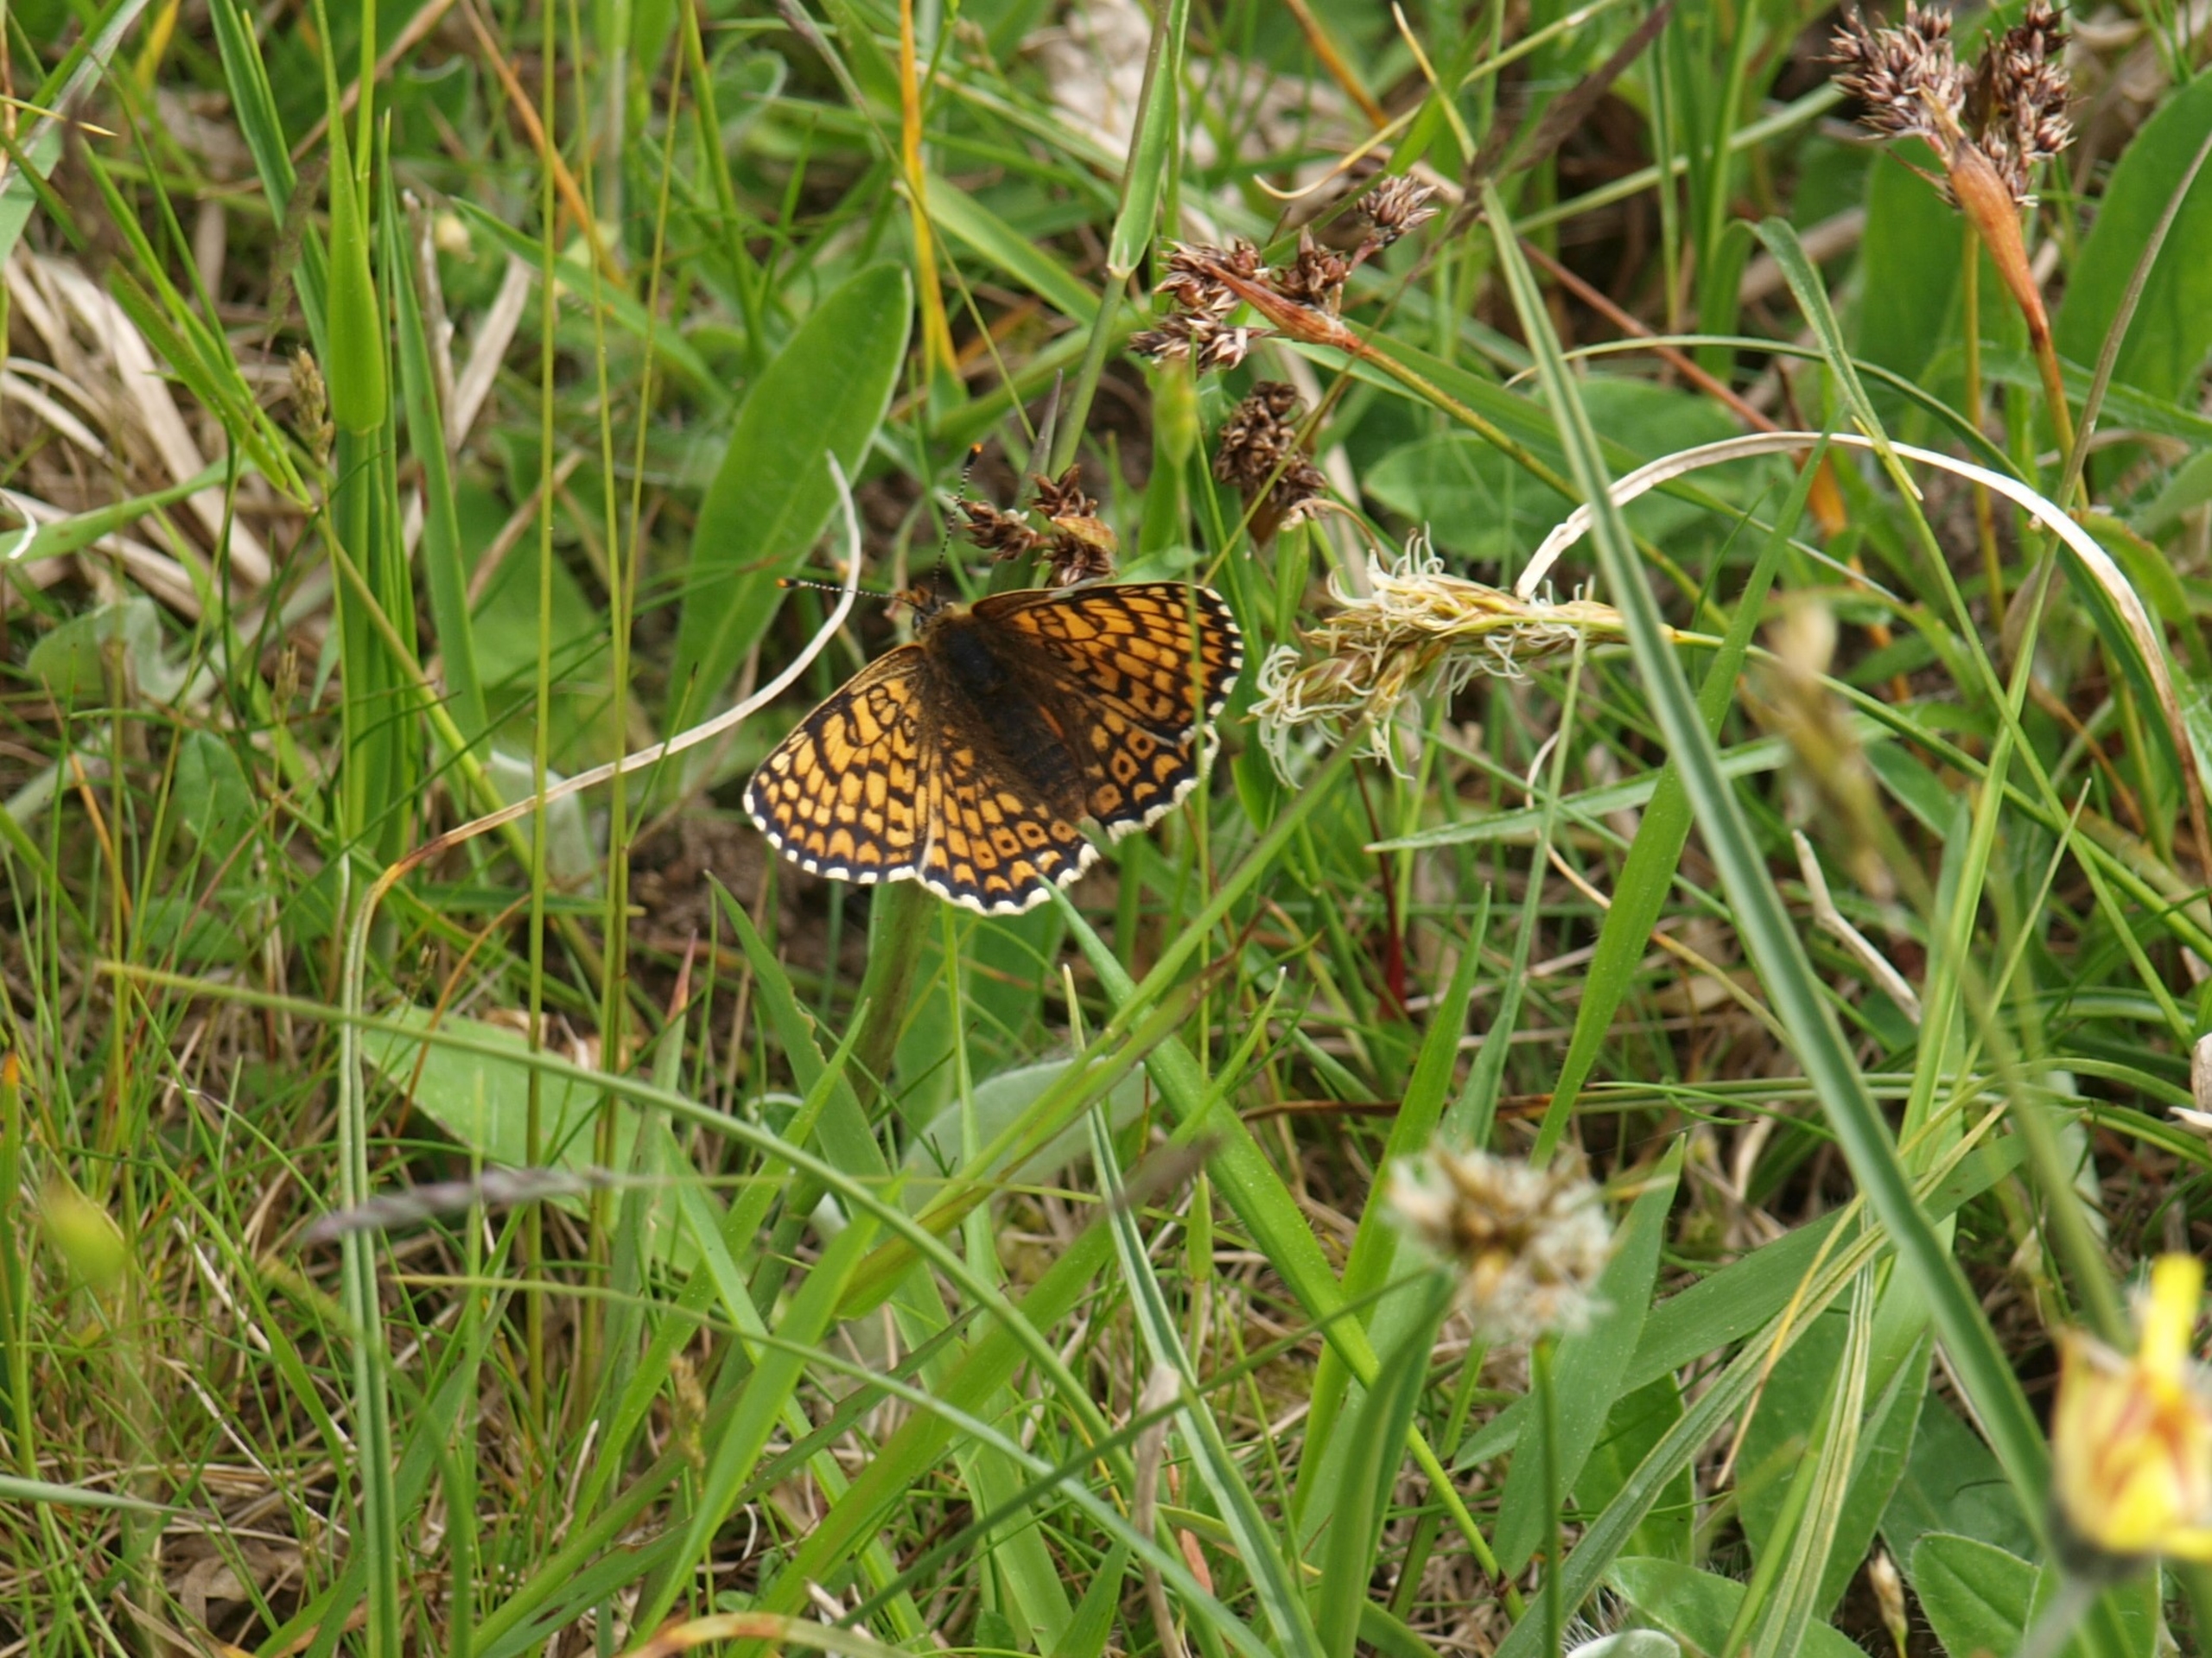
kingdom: Animalia
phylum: Arthropoda
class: Insecta
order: Lepidoptera
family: Nymphalidae
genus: Melitaea
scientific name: Melitaea cinxia
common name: Okkergul pletvinge
